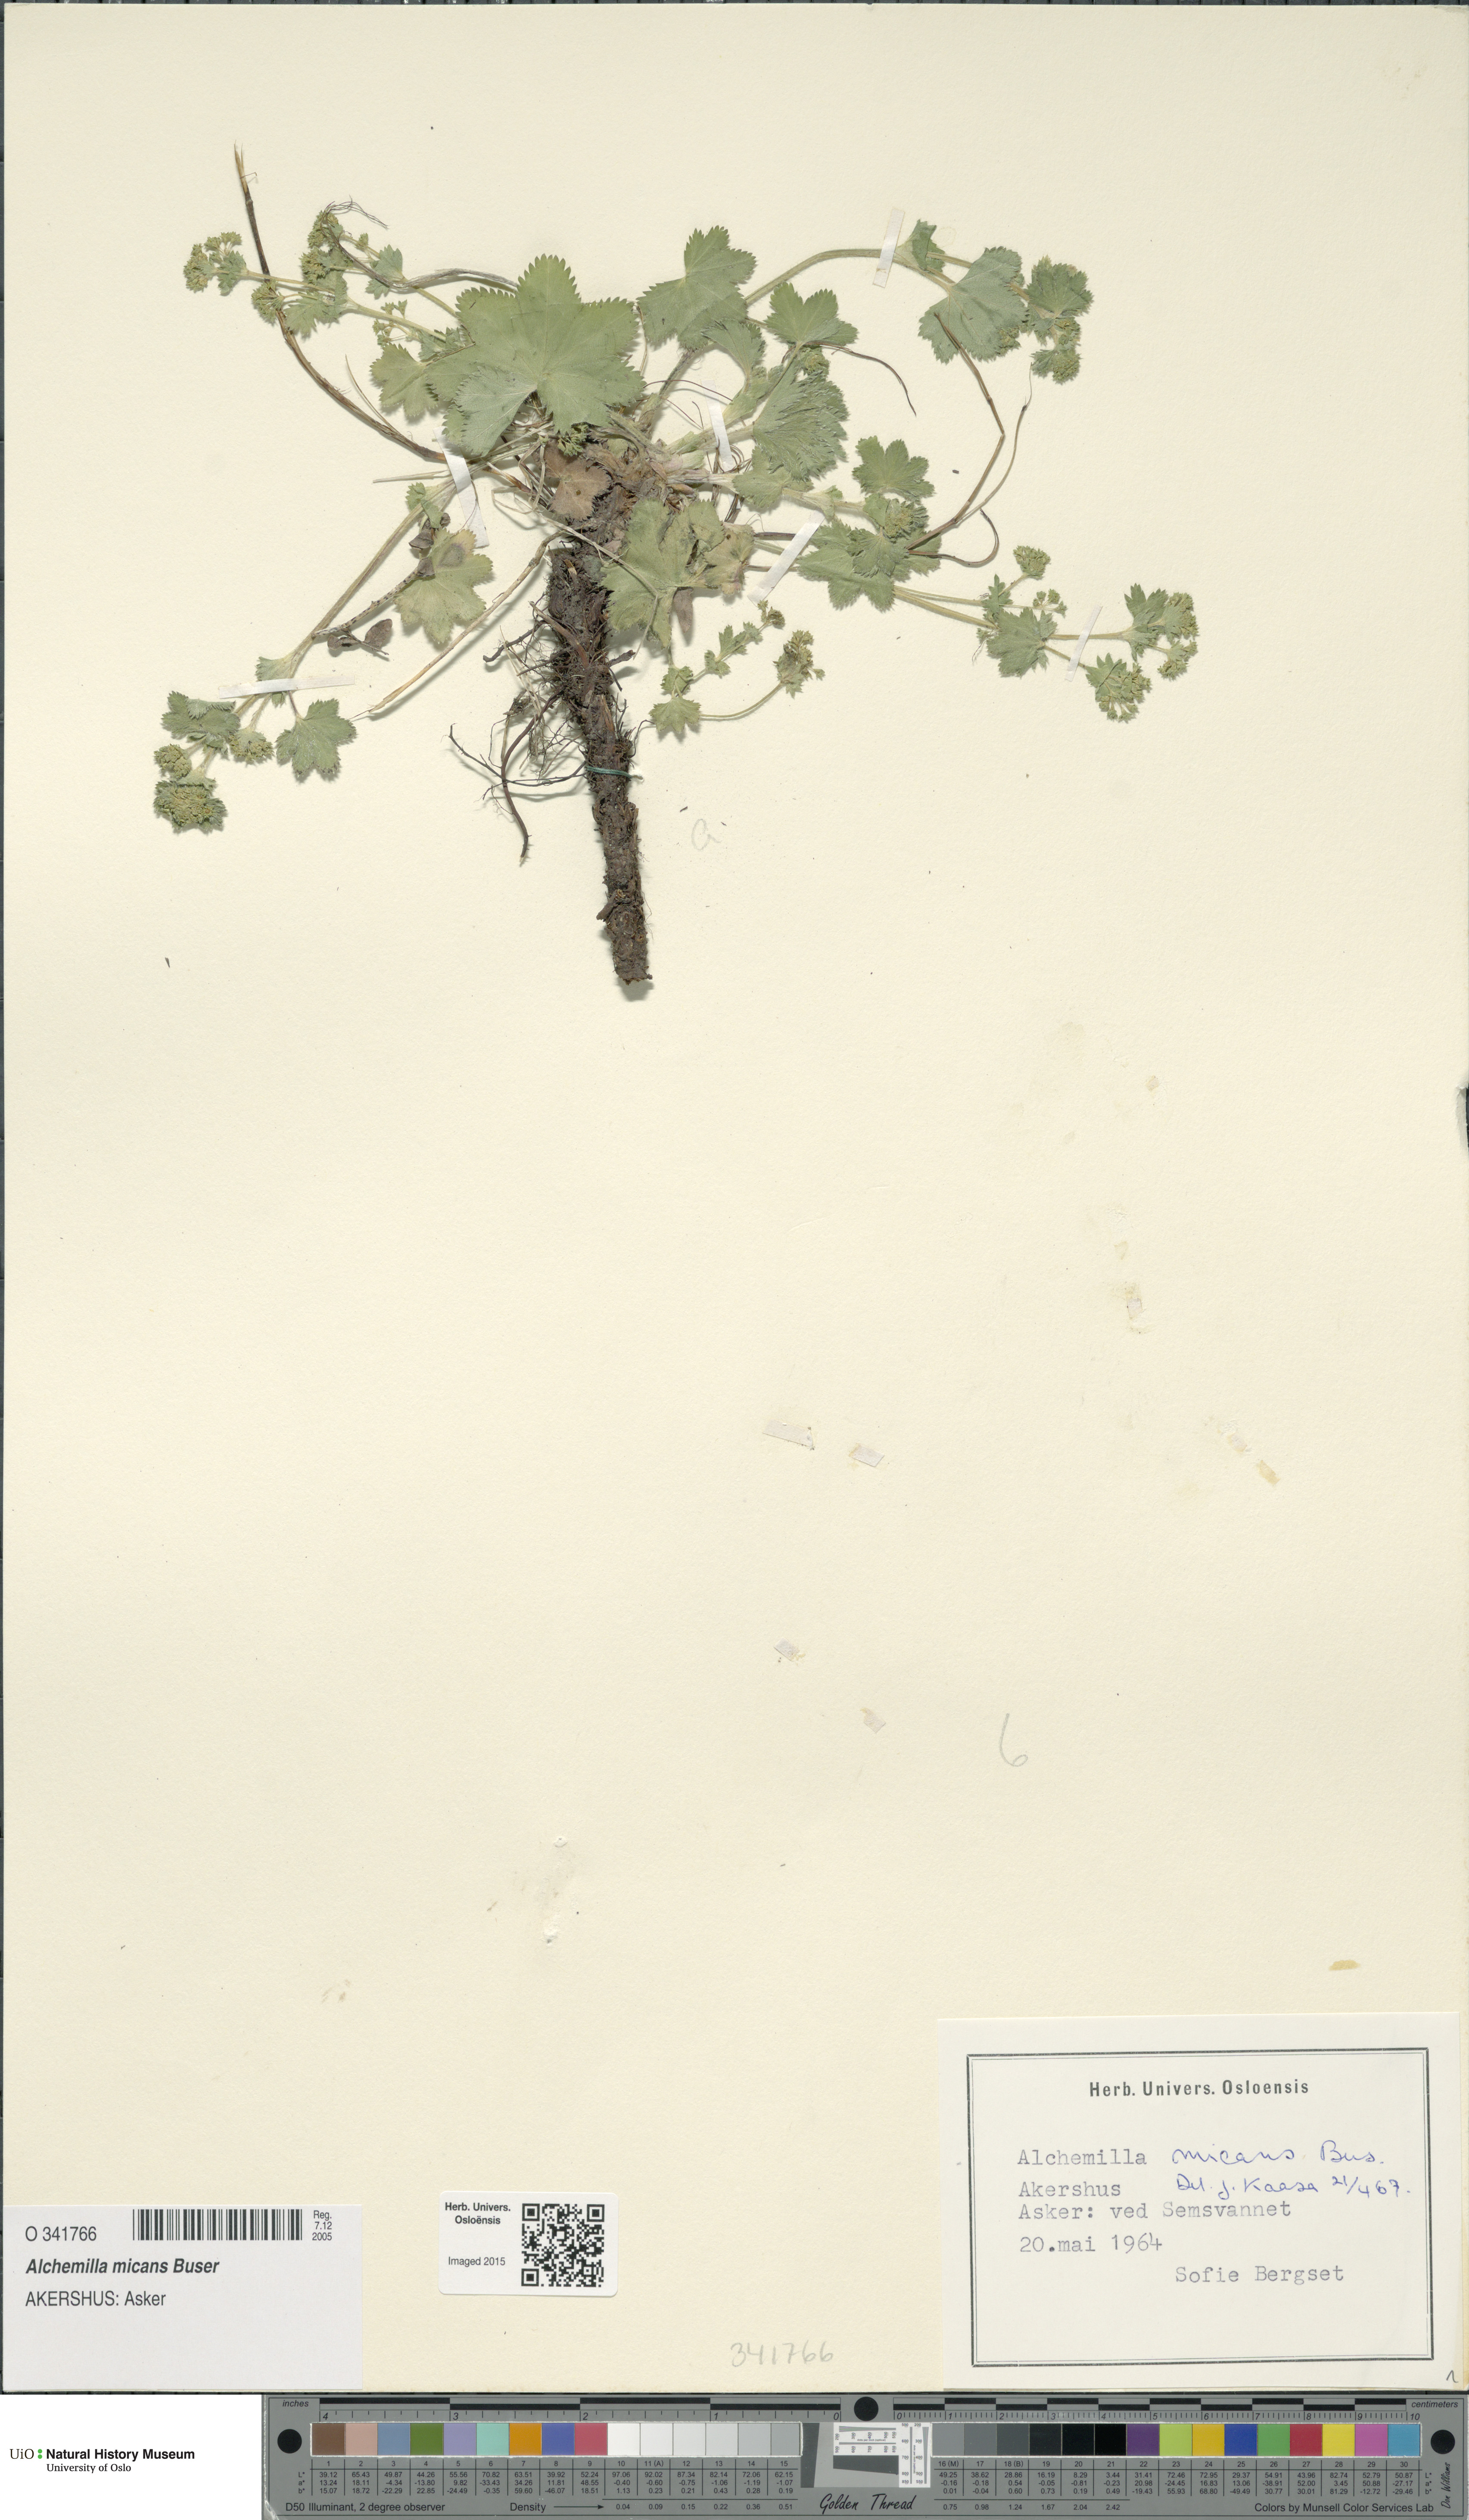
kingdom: Plantae
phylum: Tracheophyta
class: Magnoliopsida
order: Rosales
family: Rosaceae
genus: Alchemilla
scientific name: Alchemilla micans
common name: Gleaming lady's mantle
